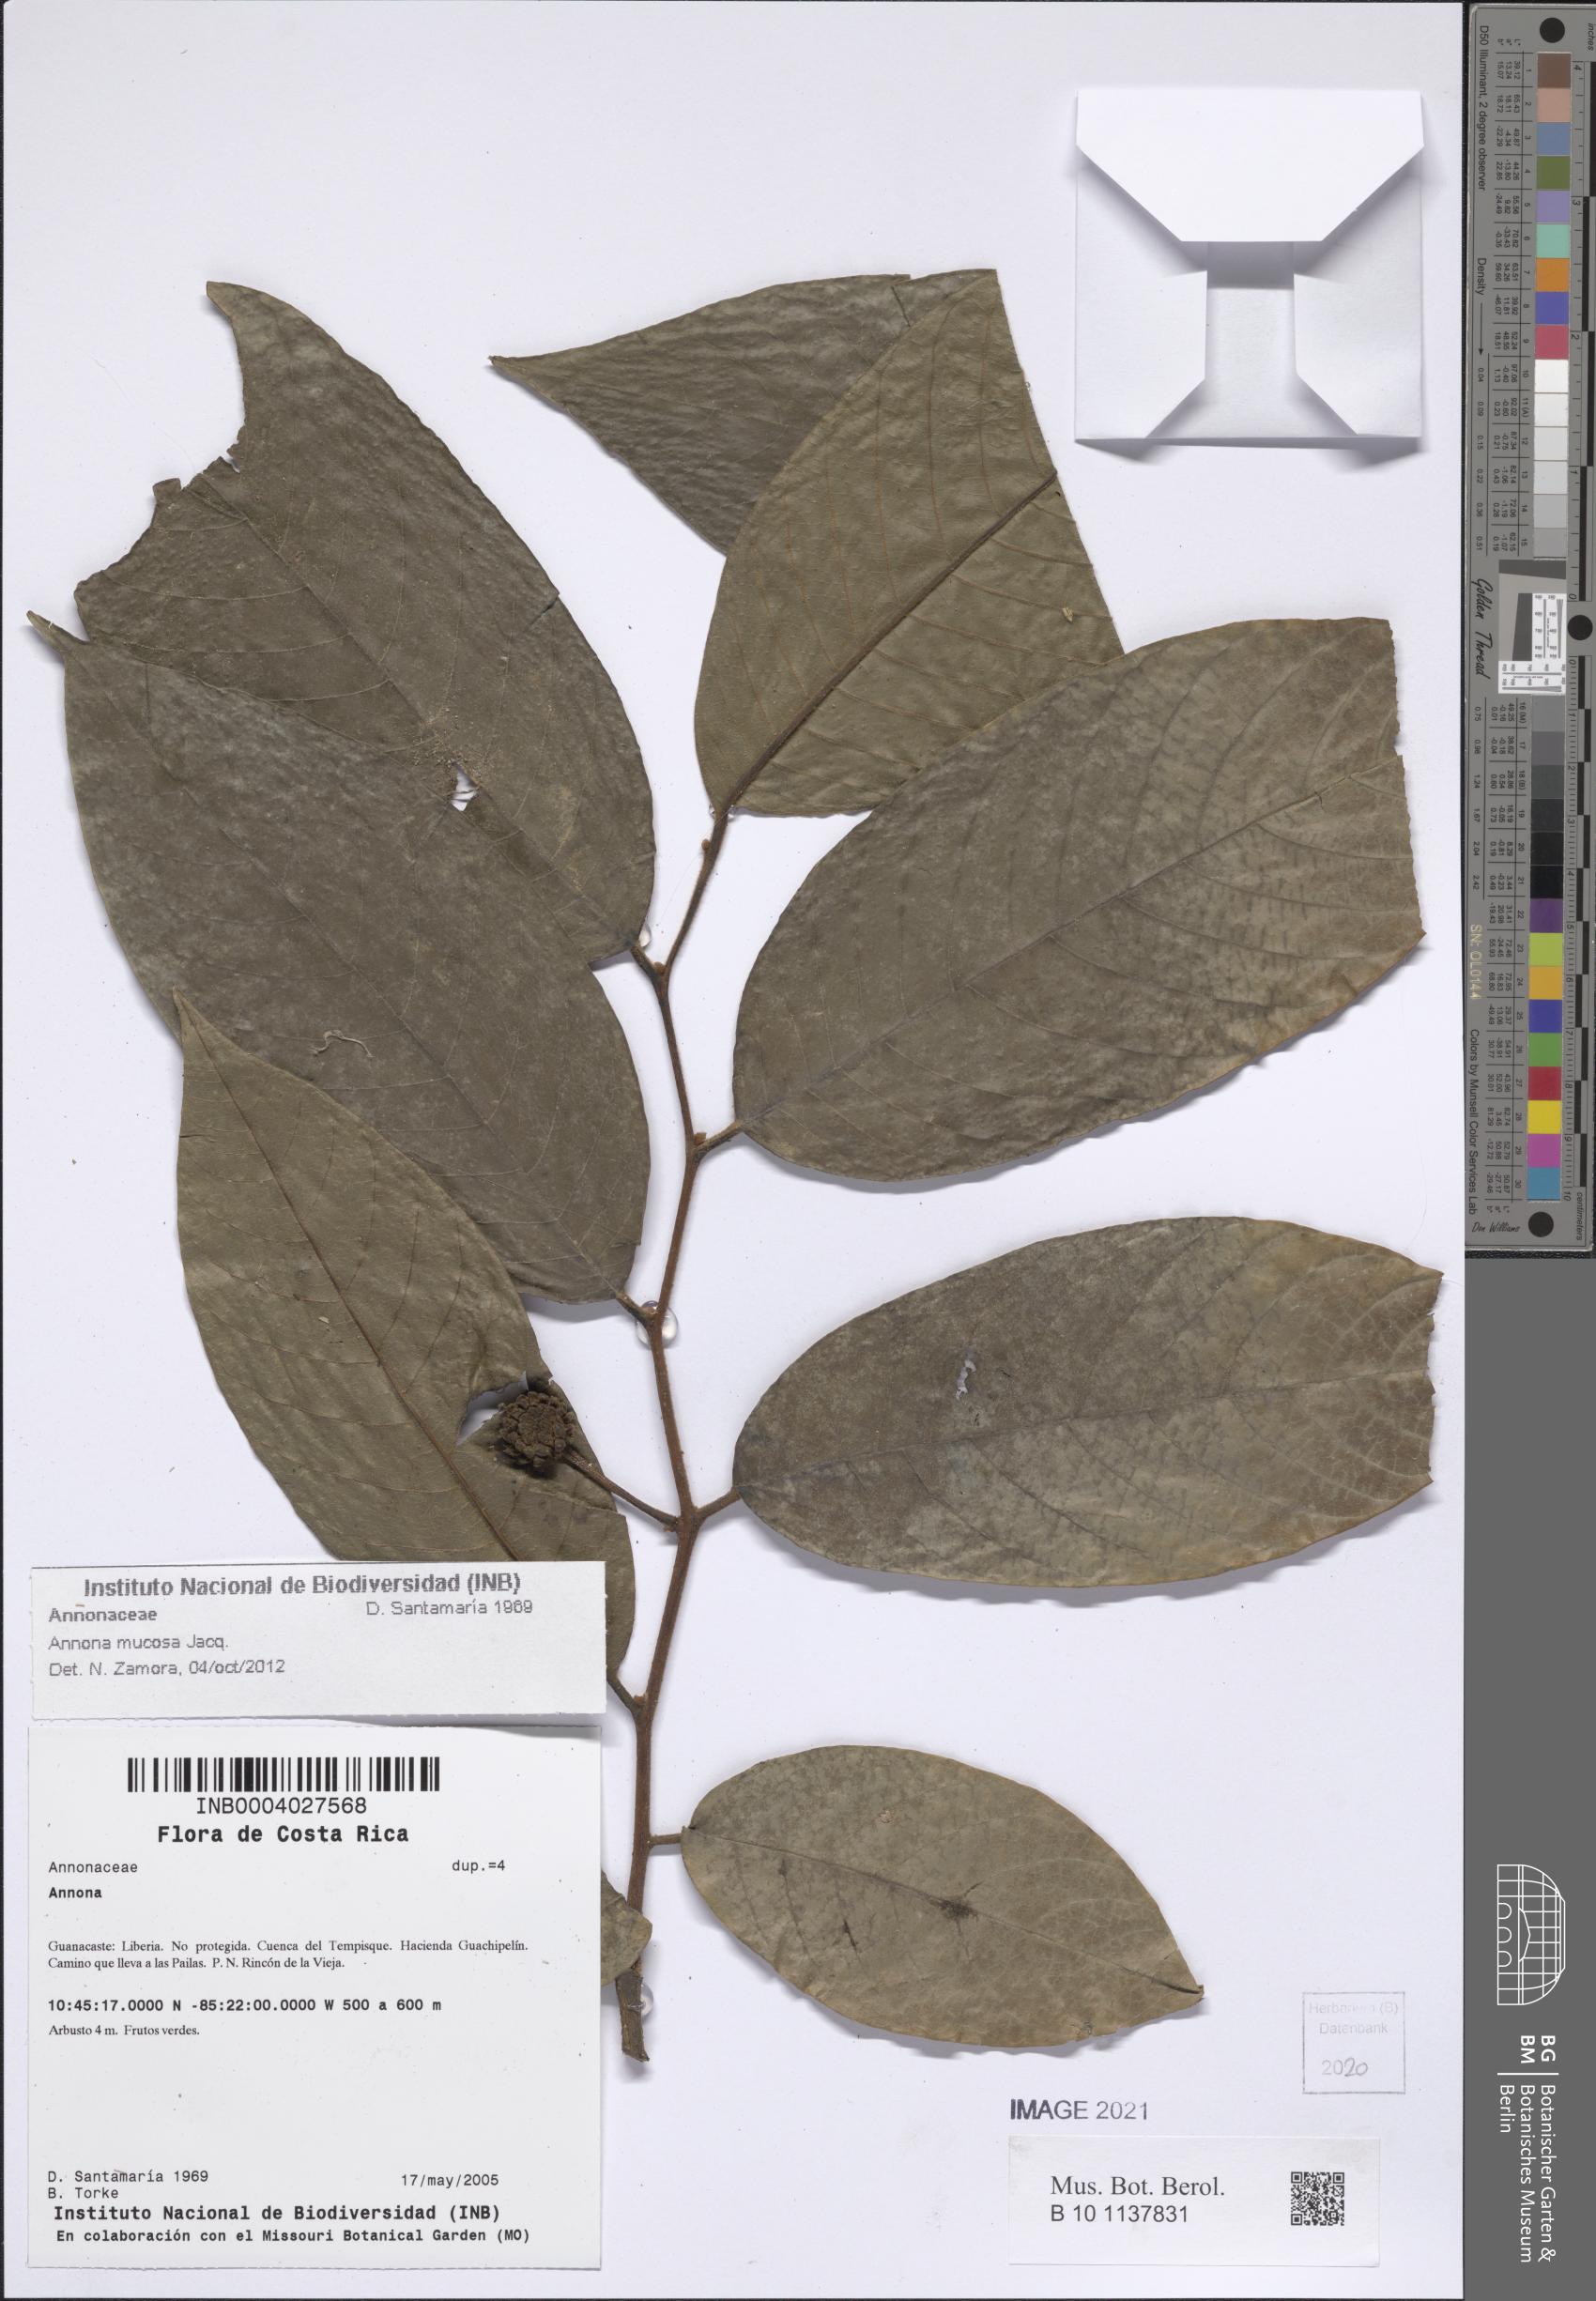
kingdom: Plantae
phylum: Tracheophyta
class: Magnoliopsida
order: Magnoliales
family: Annonaceae
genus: Annona
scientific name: Annona mucosa
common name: Sugar apple
